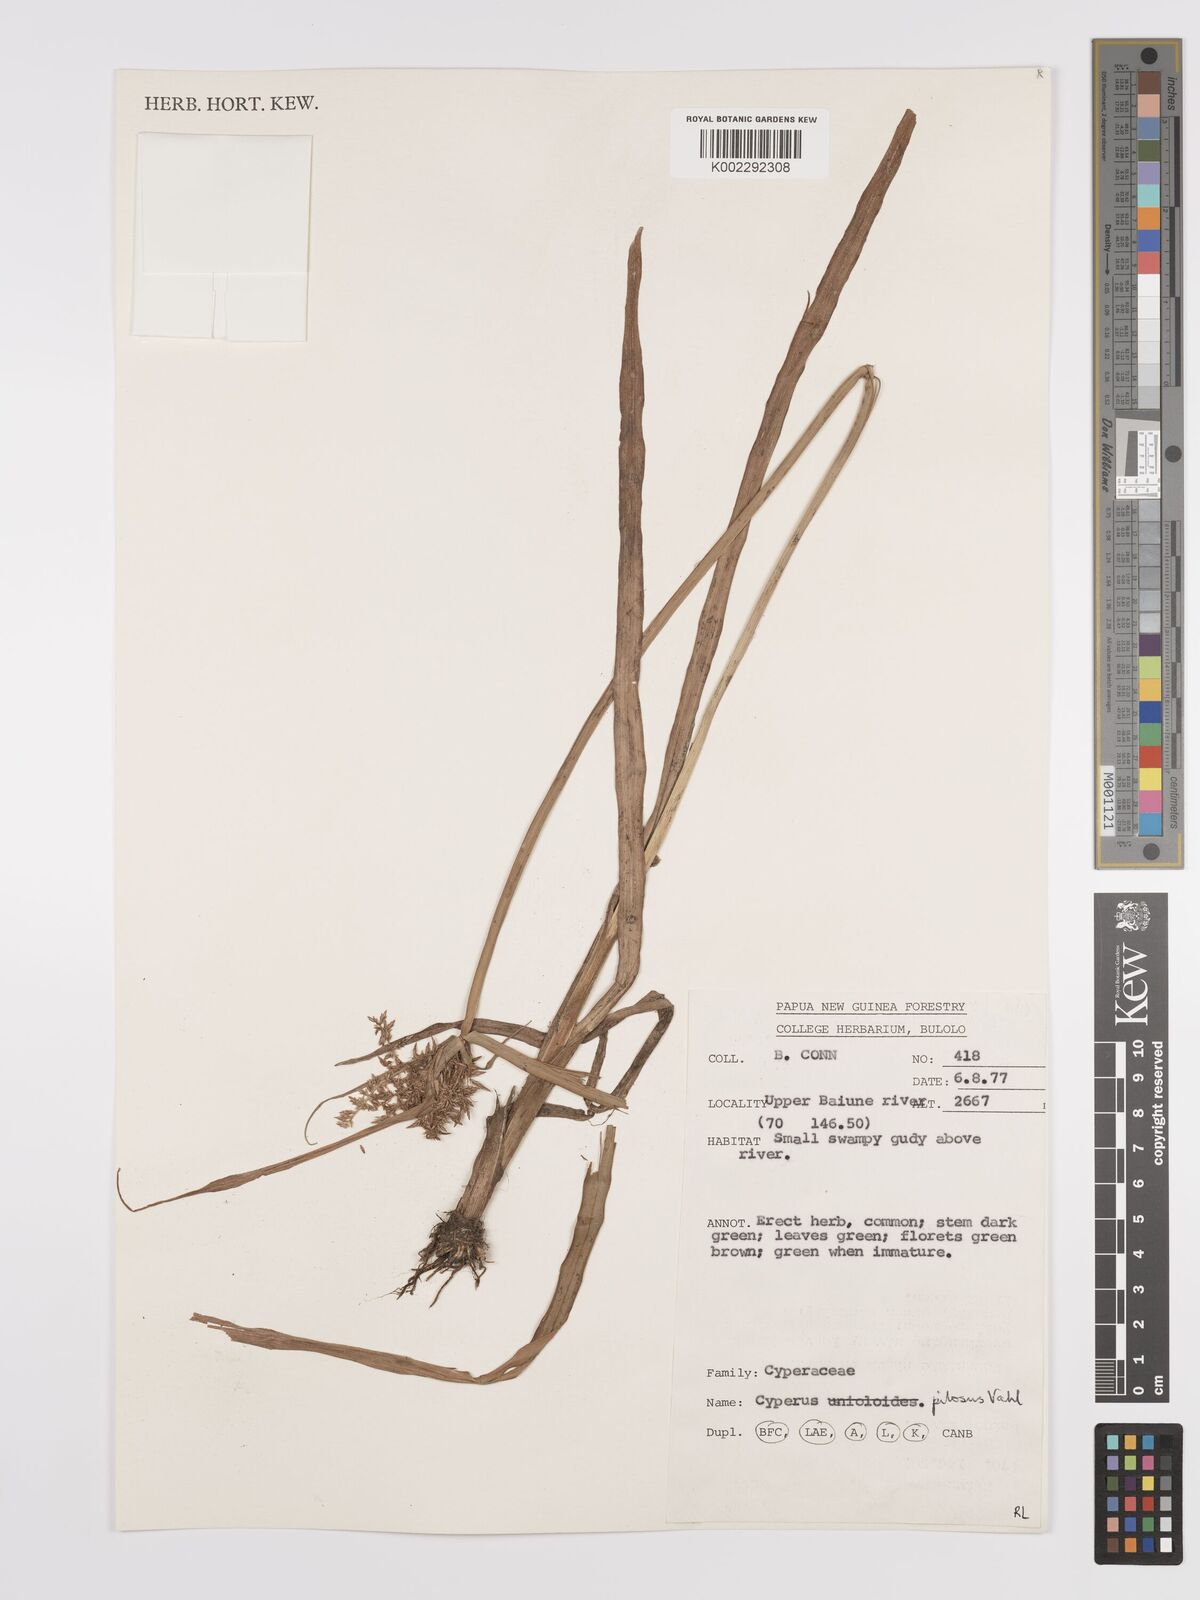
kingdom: Plantae
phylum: Tracheophyta
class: Liliopsida
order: Poales
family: Cyperaceae
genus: Cyperus
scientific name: Cyperus pilosus
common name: Fuzzy flatsedge
